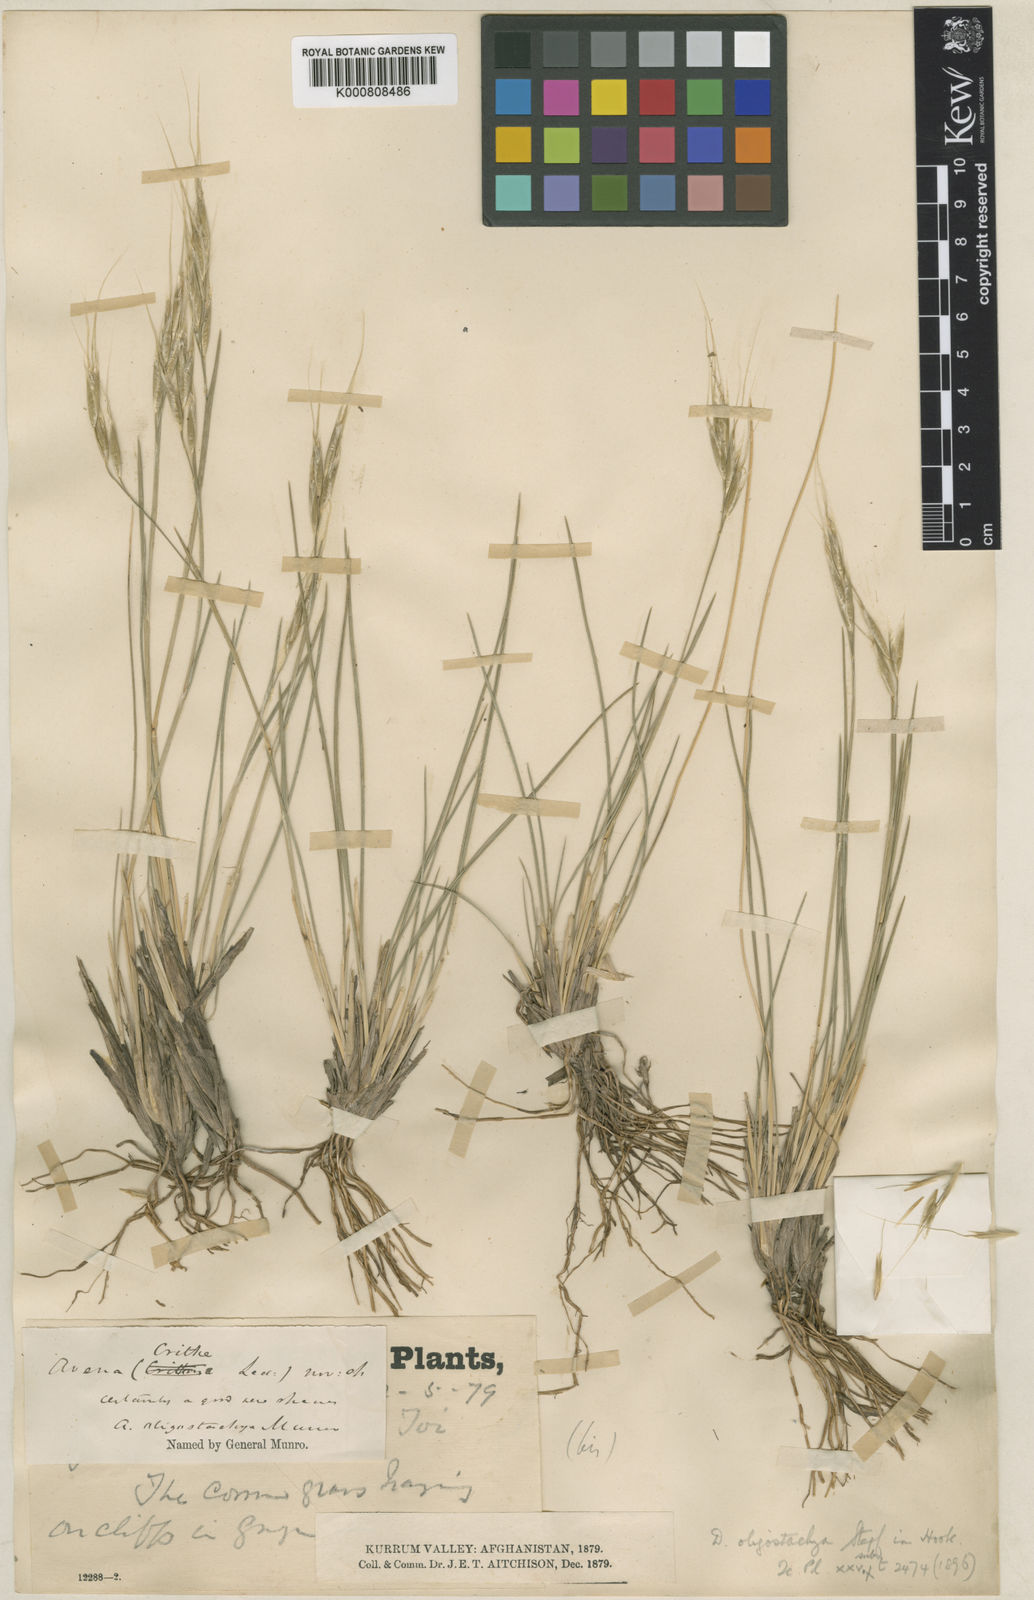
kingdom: Plantae
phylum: Tracheophyta
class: Liliopsida
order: Poales
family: Poaceae
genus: Duthiea
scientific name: Duthiea oligostachya
